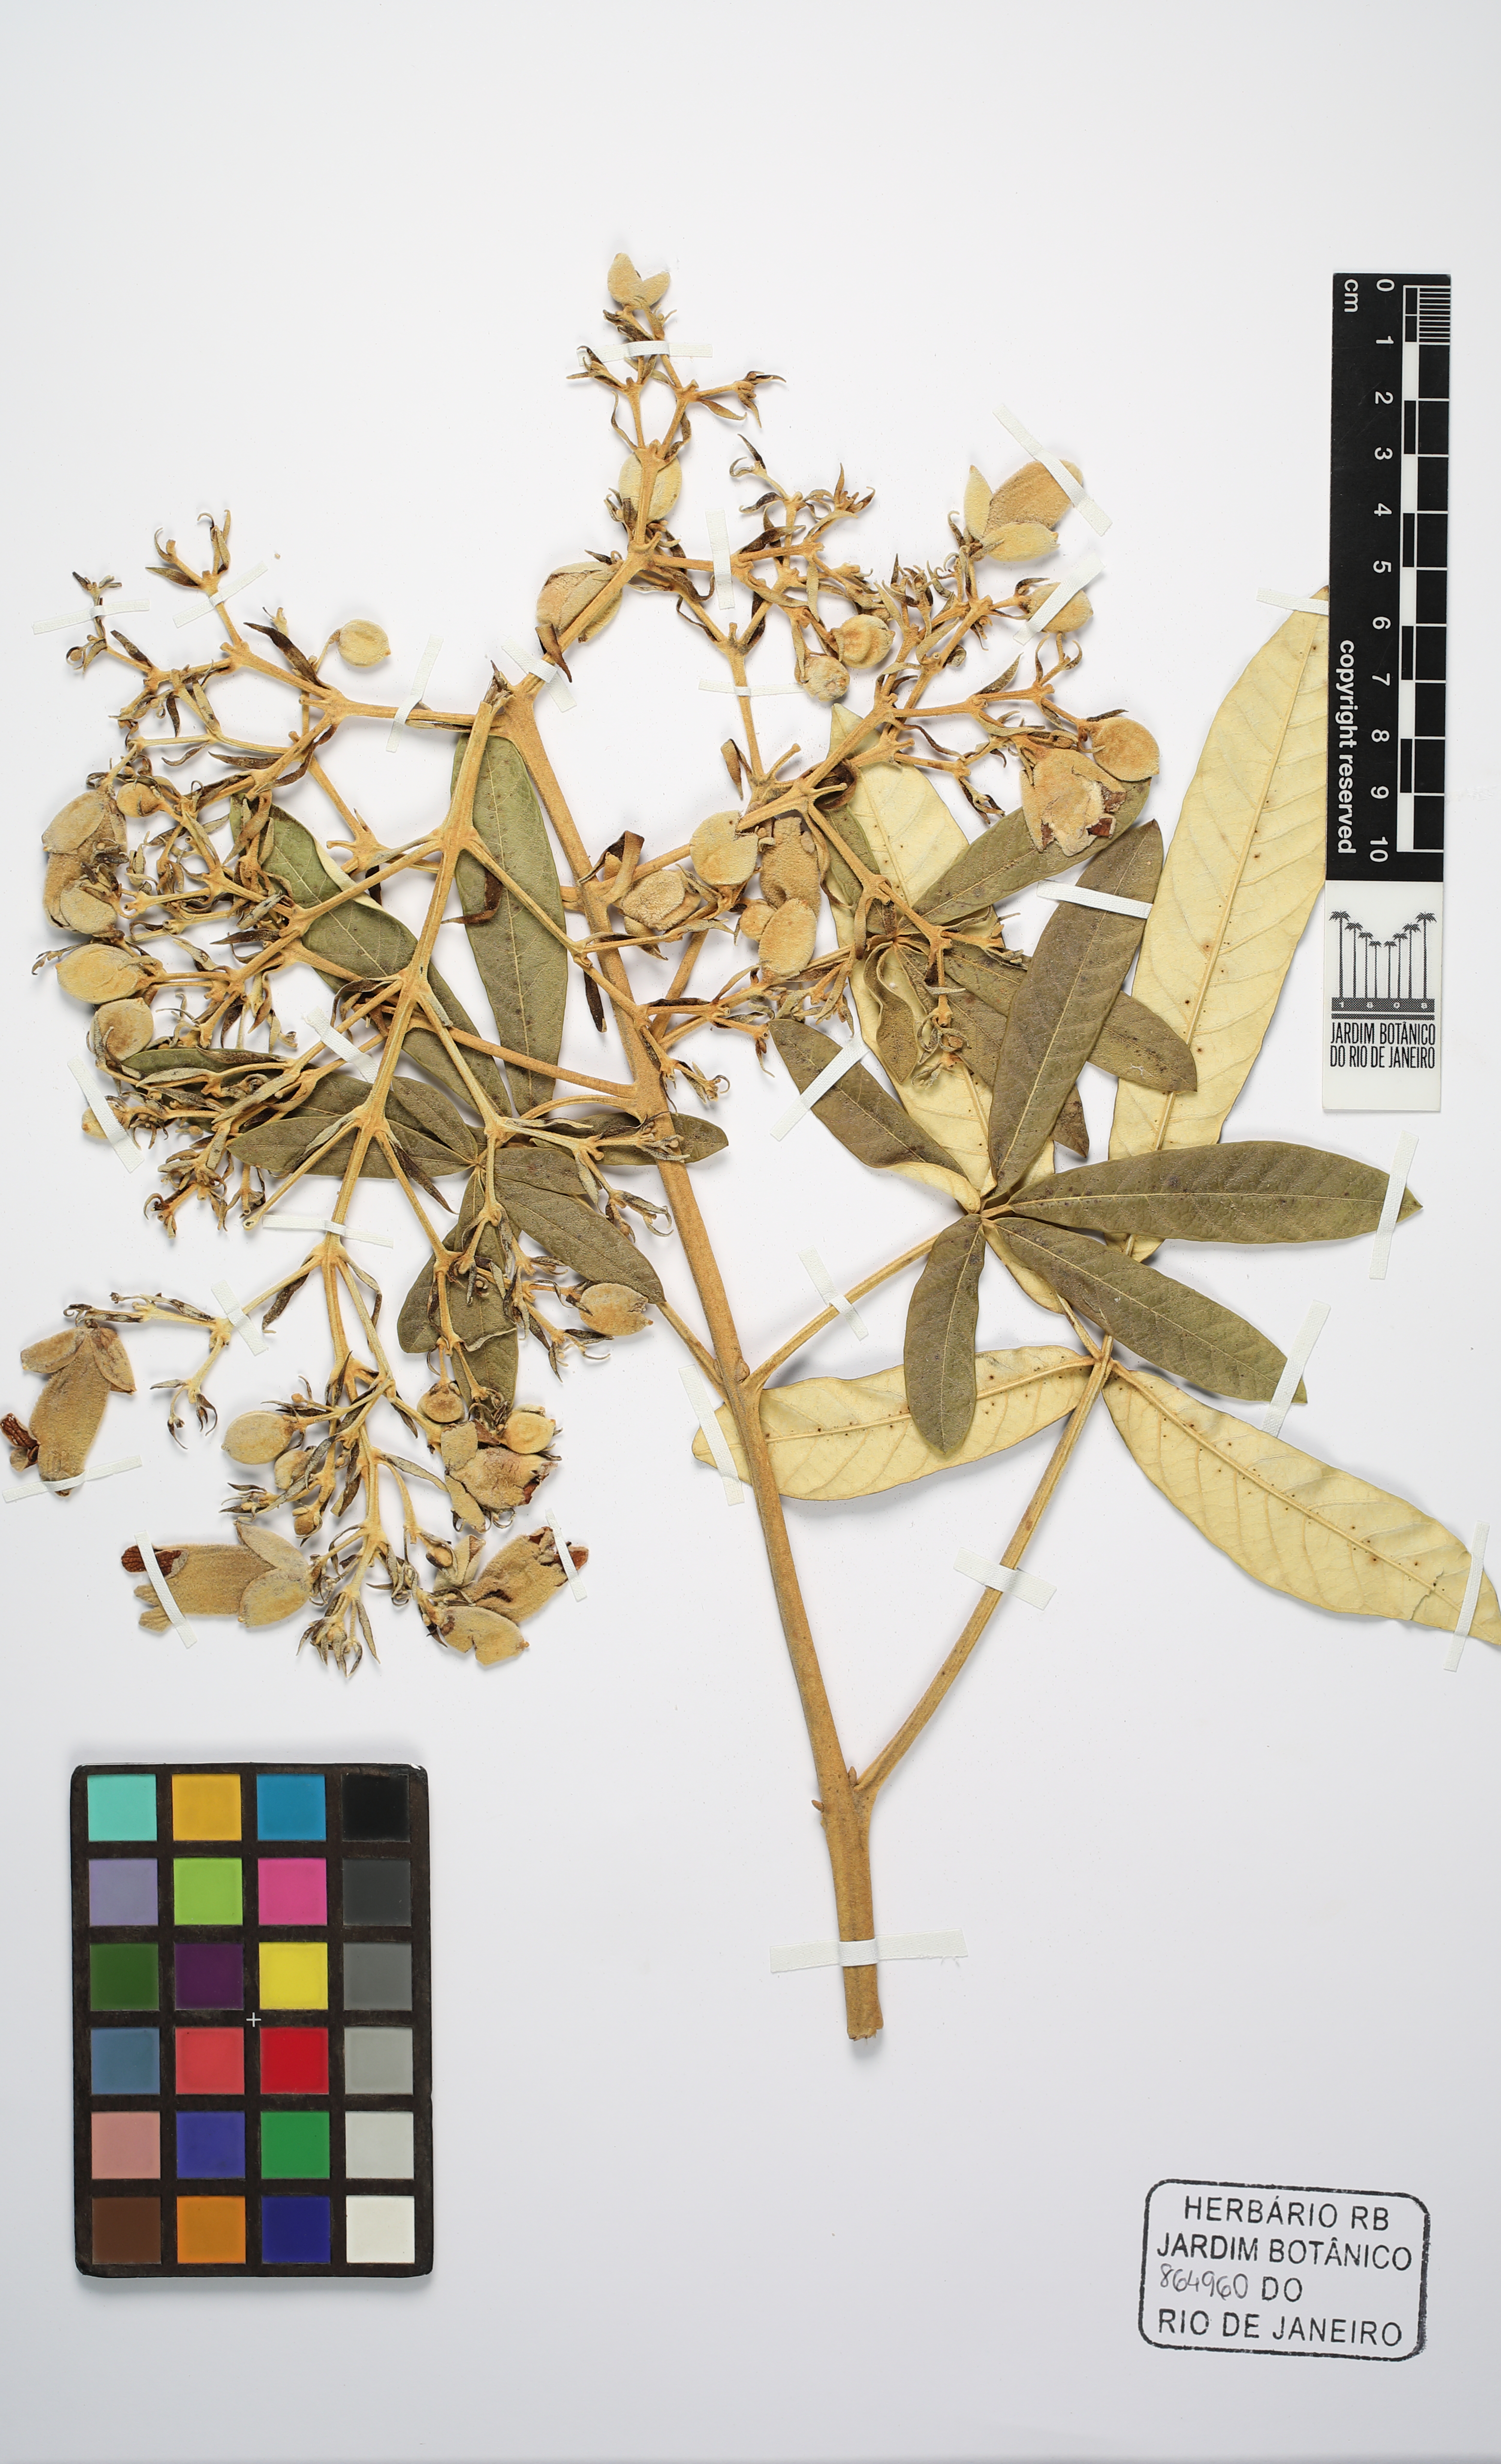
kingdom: Plantae
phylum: Tracheophyta
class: Magnoliopsida
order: Lamiales
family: Bignoniaceae
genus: Zeyheria
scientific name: Zeyheria montana
